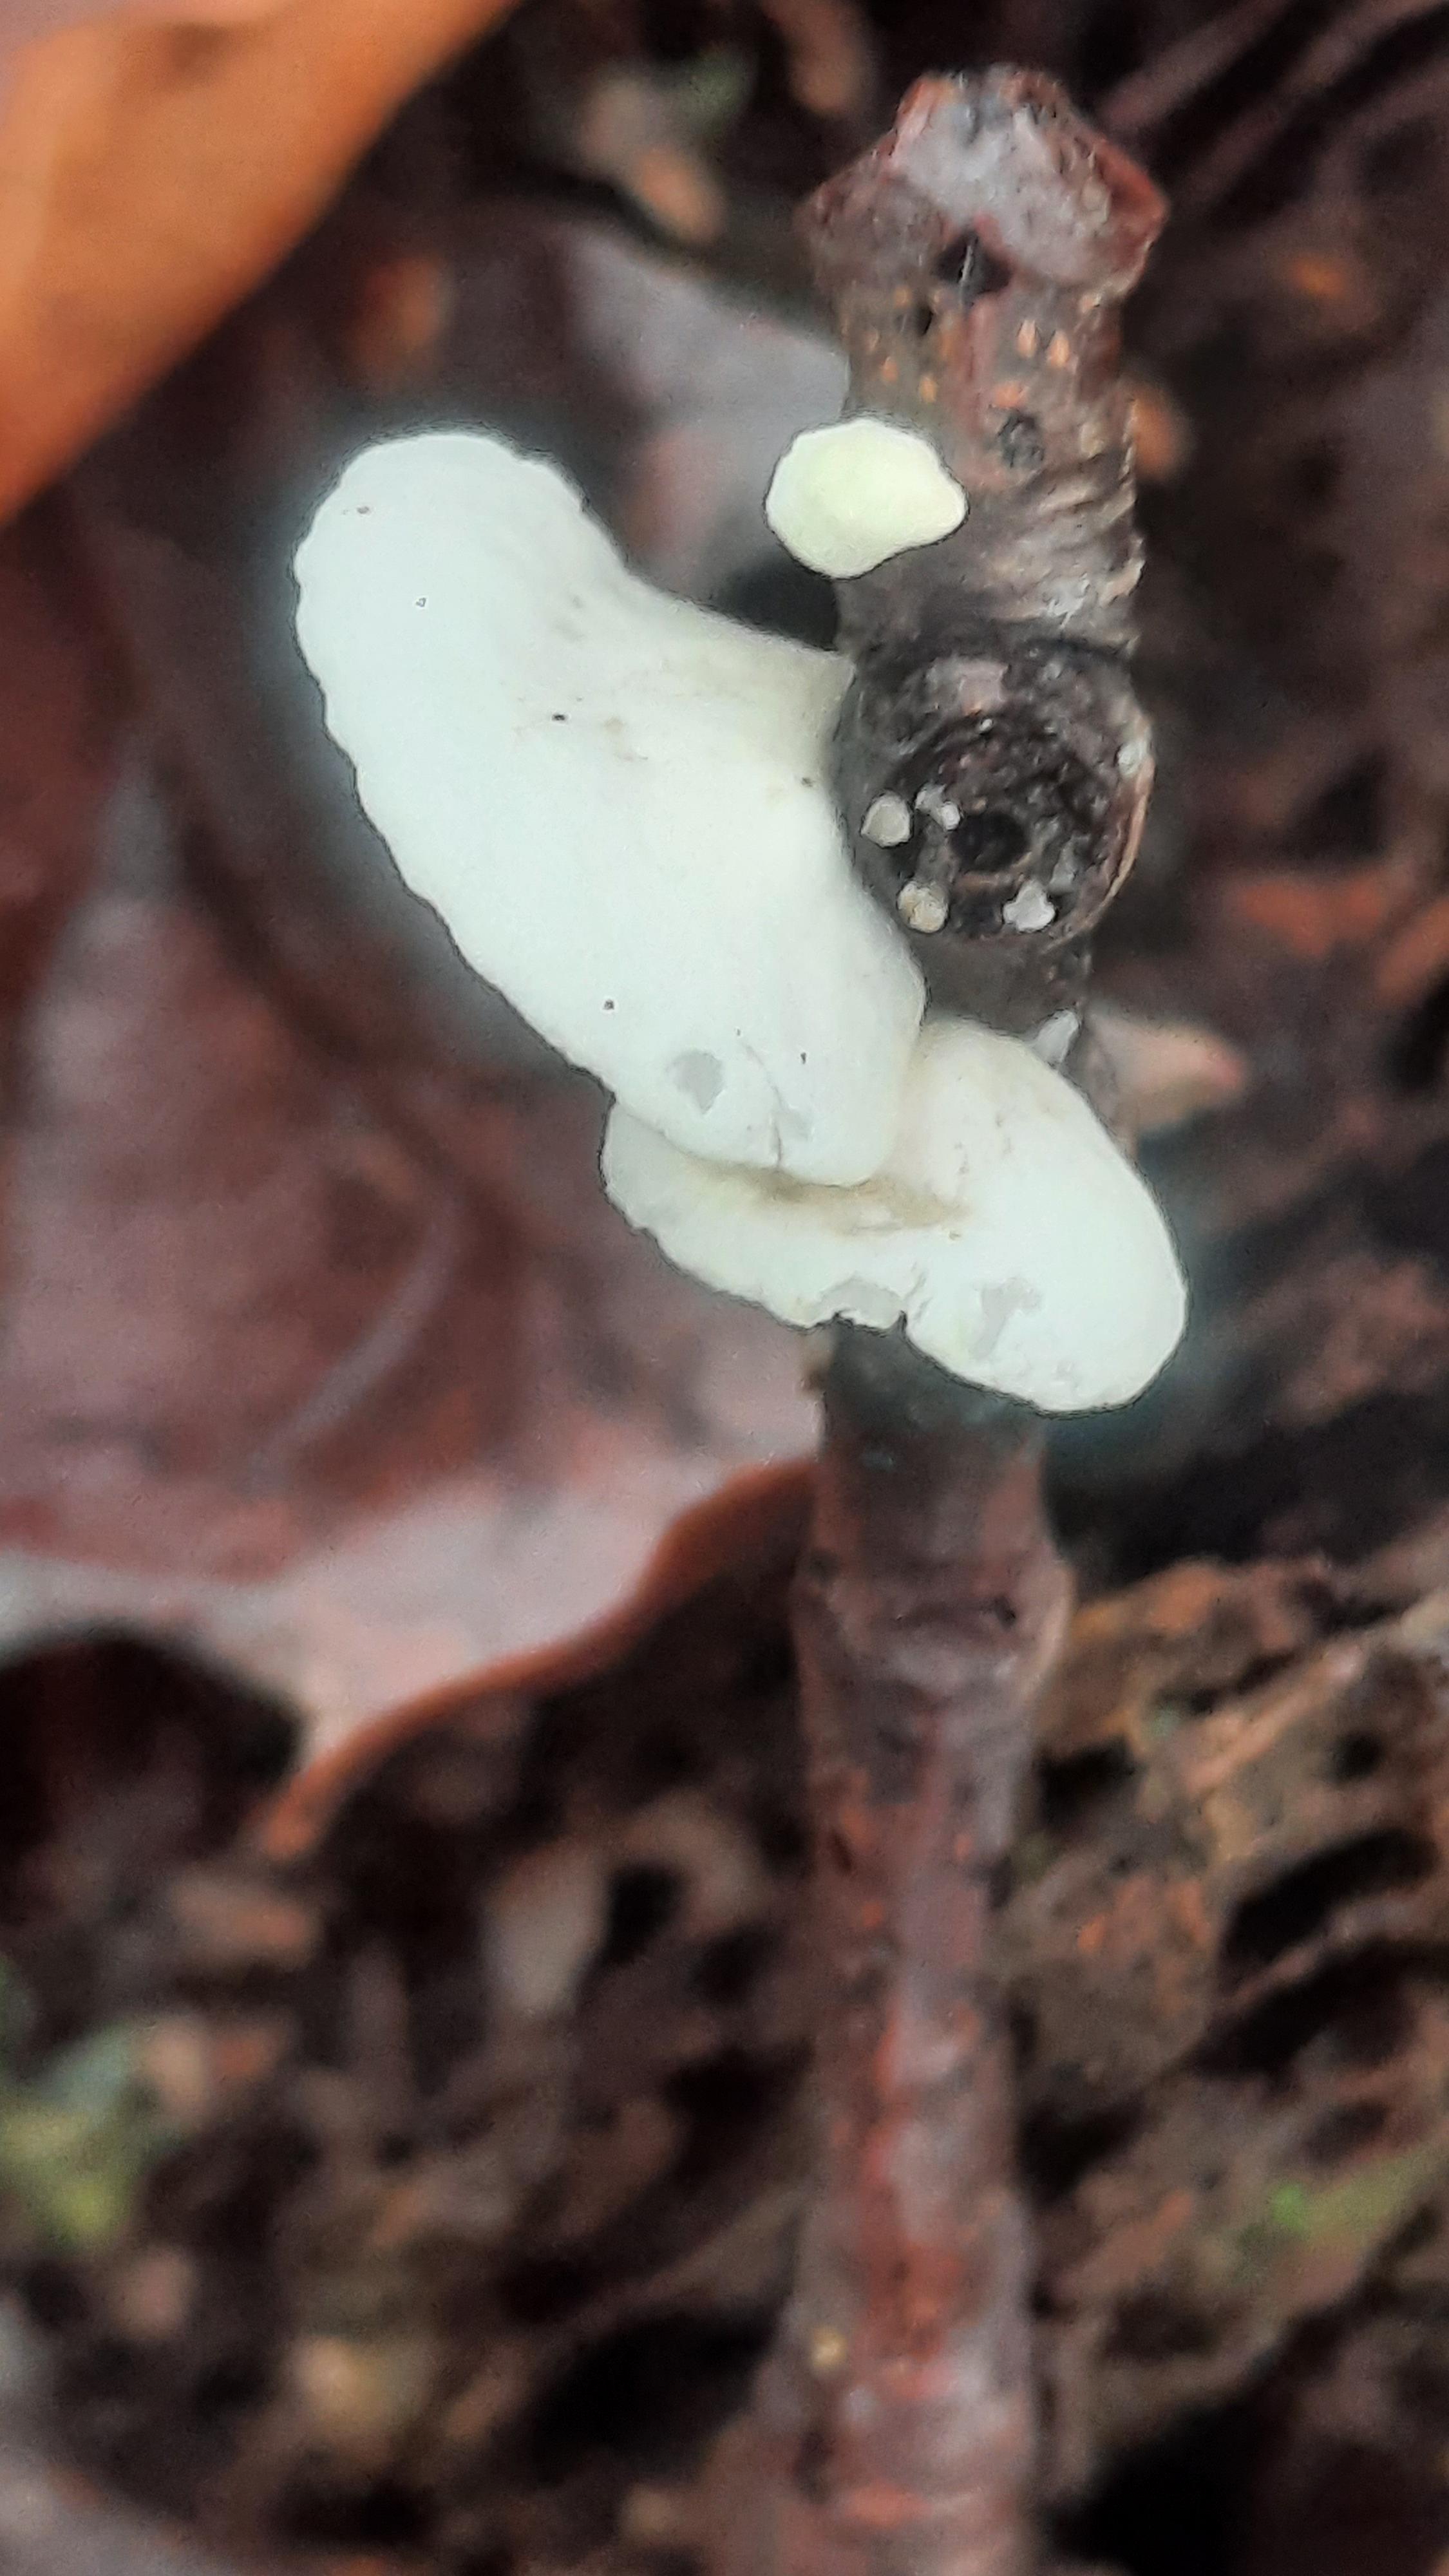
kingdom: Fungi
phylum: Basidiomycota
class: Agaricomycetes
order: Agaricales
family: Crepidotaceae
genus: Crepidotus
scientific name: Crepidotus
